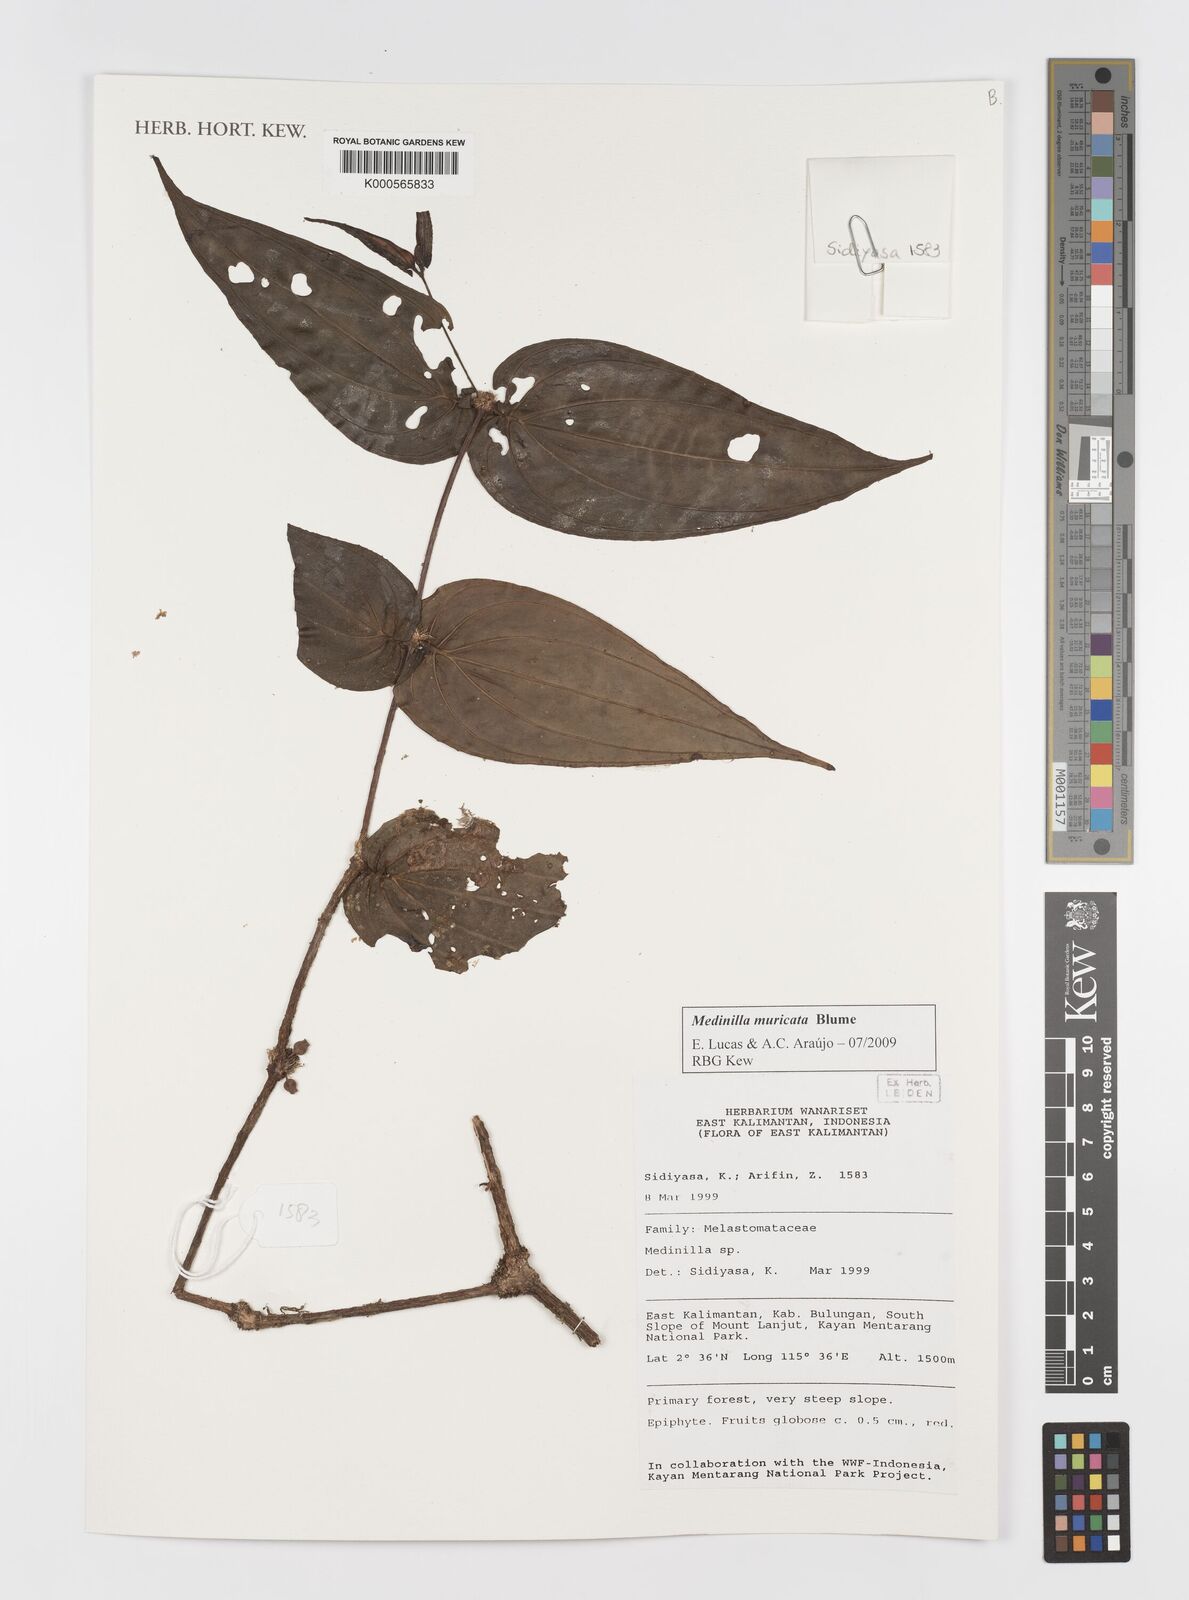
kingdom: Plantae
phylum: Tracheophyta
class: Magnoliopsida
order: Myrtales
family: Melastomataceae
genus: Medinilla
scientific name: Medinilla muricata
